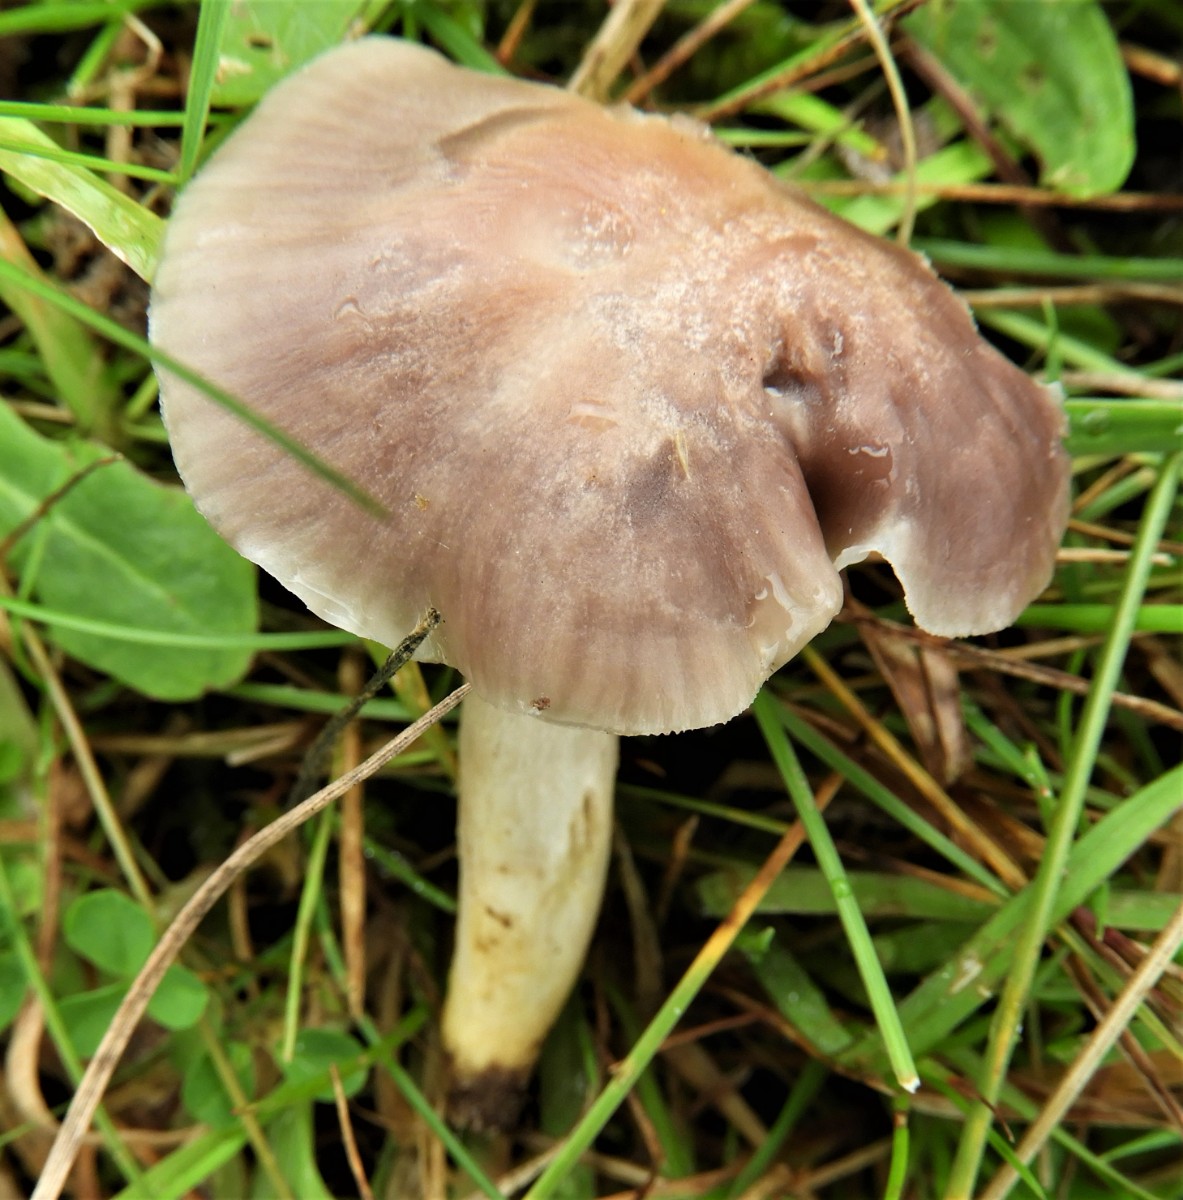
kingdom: Fungi
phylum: Basidiomycota
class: Agaricomycetes
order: Agaricales
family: Hygrophoraceae
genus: Cuphophyllus
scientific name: Cuphophyllus flavipes
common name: gulfodet vokshat
